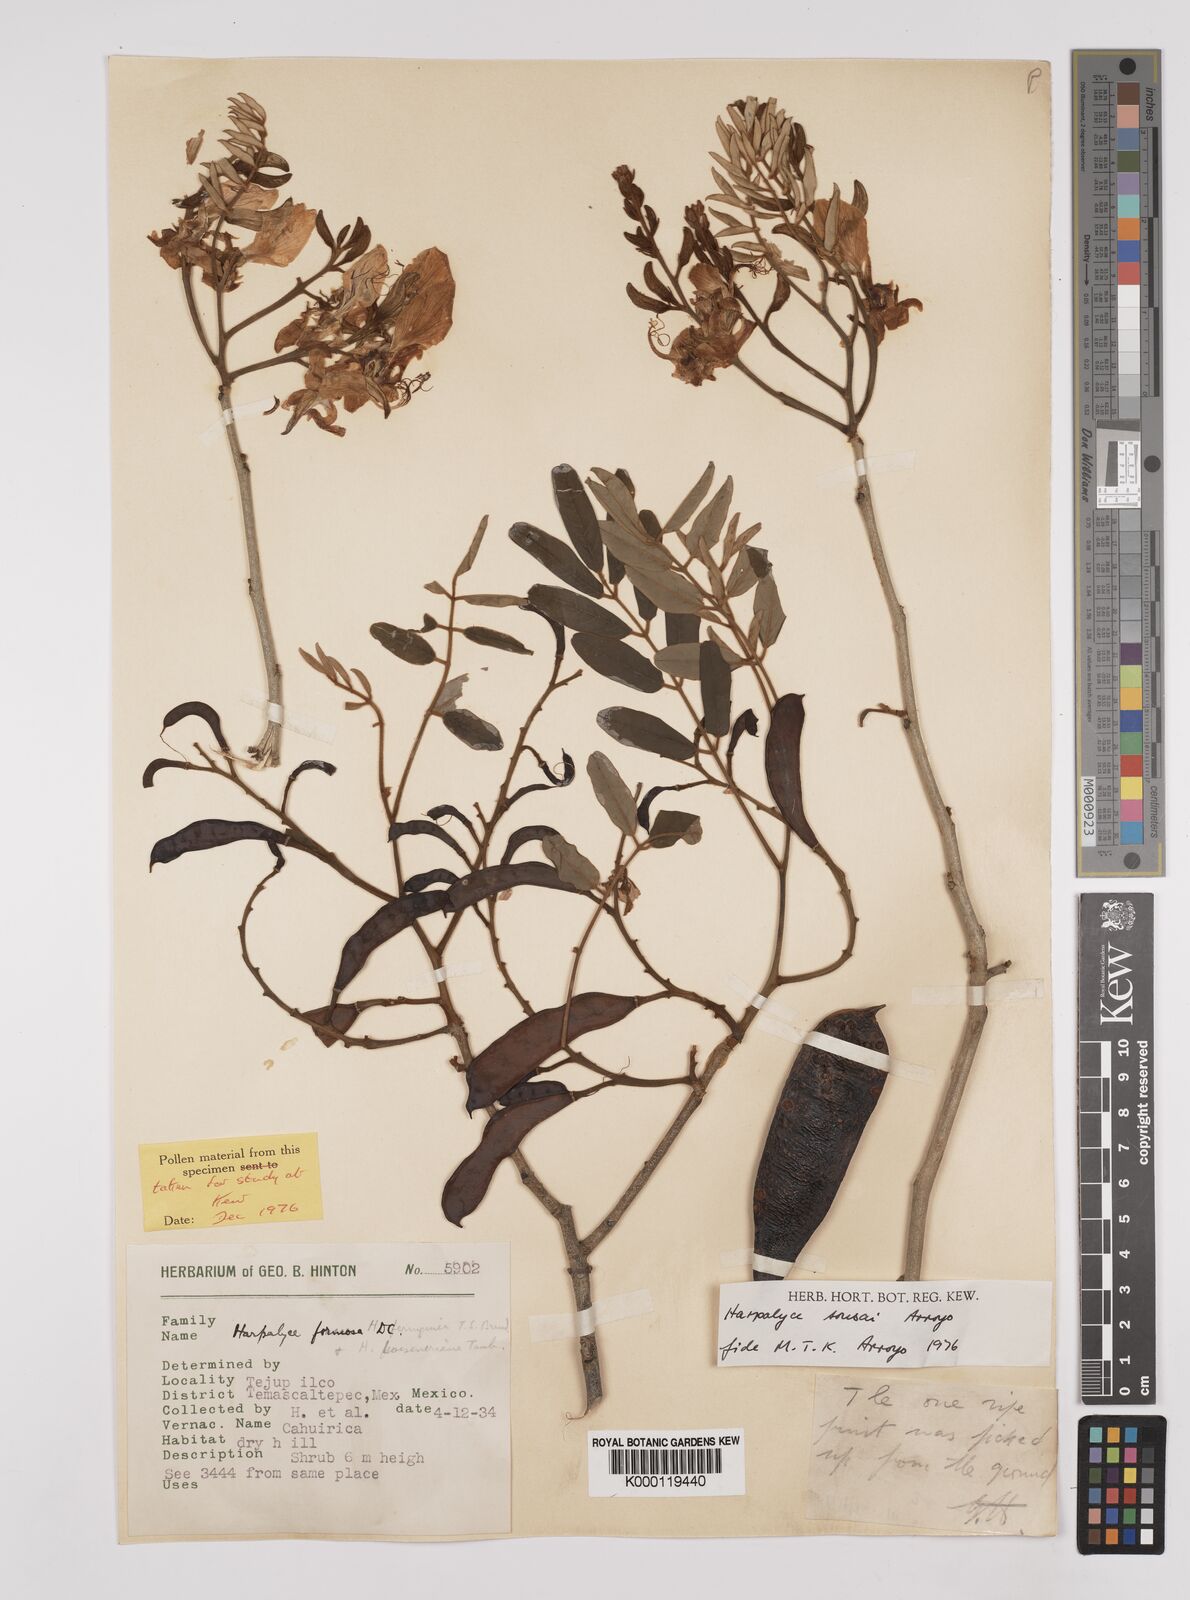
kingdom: Plantae
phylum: Tracheophyta
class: Magnoliopsida
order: Fabales
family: Fabaceae
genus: Harpalyce
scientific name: Harpalyce
